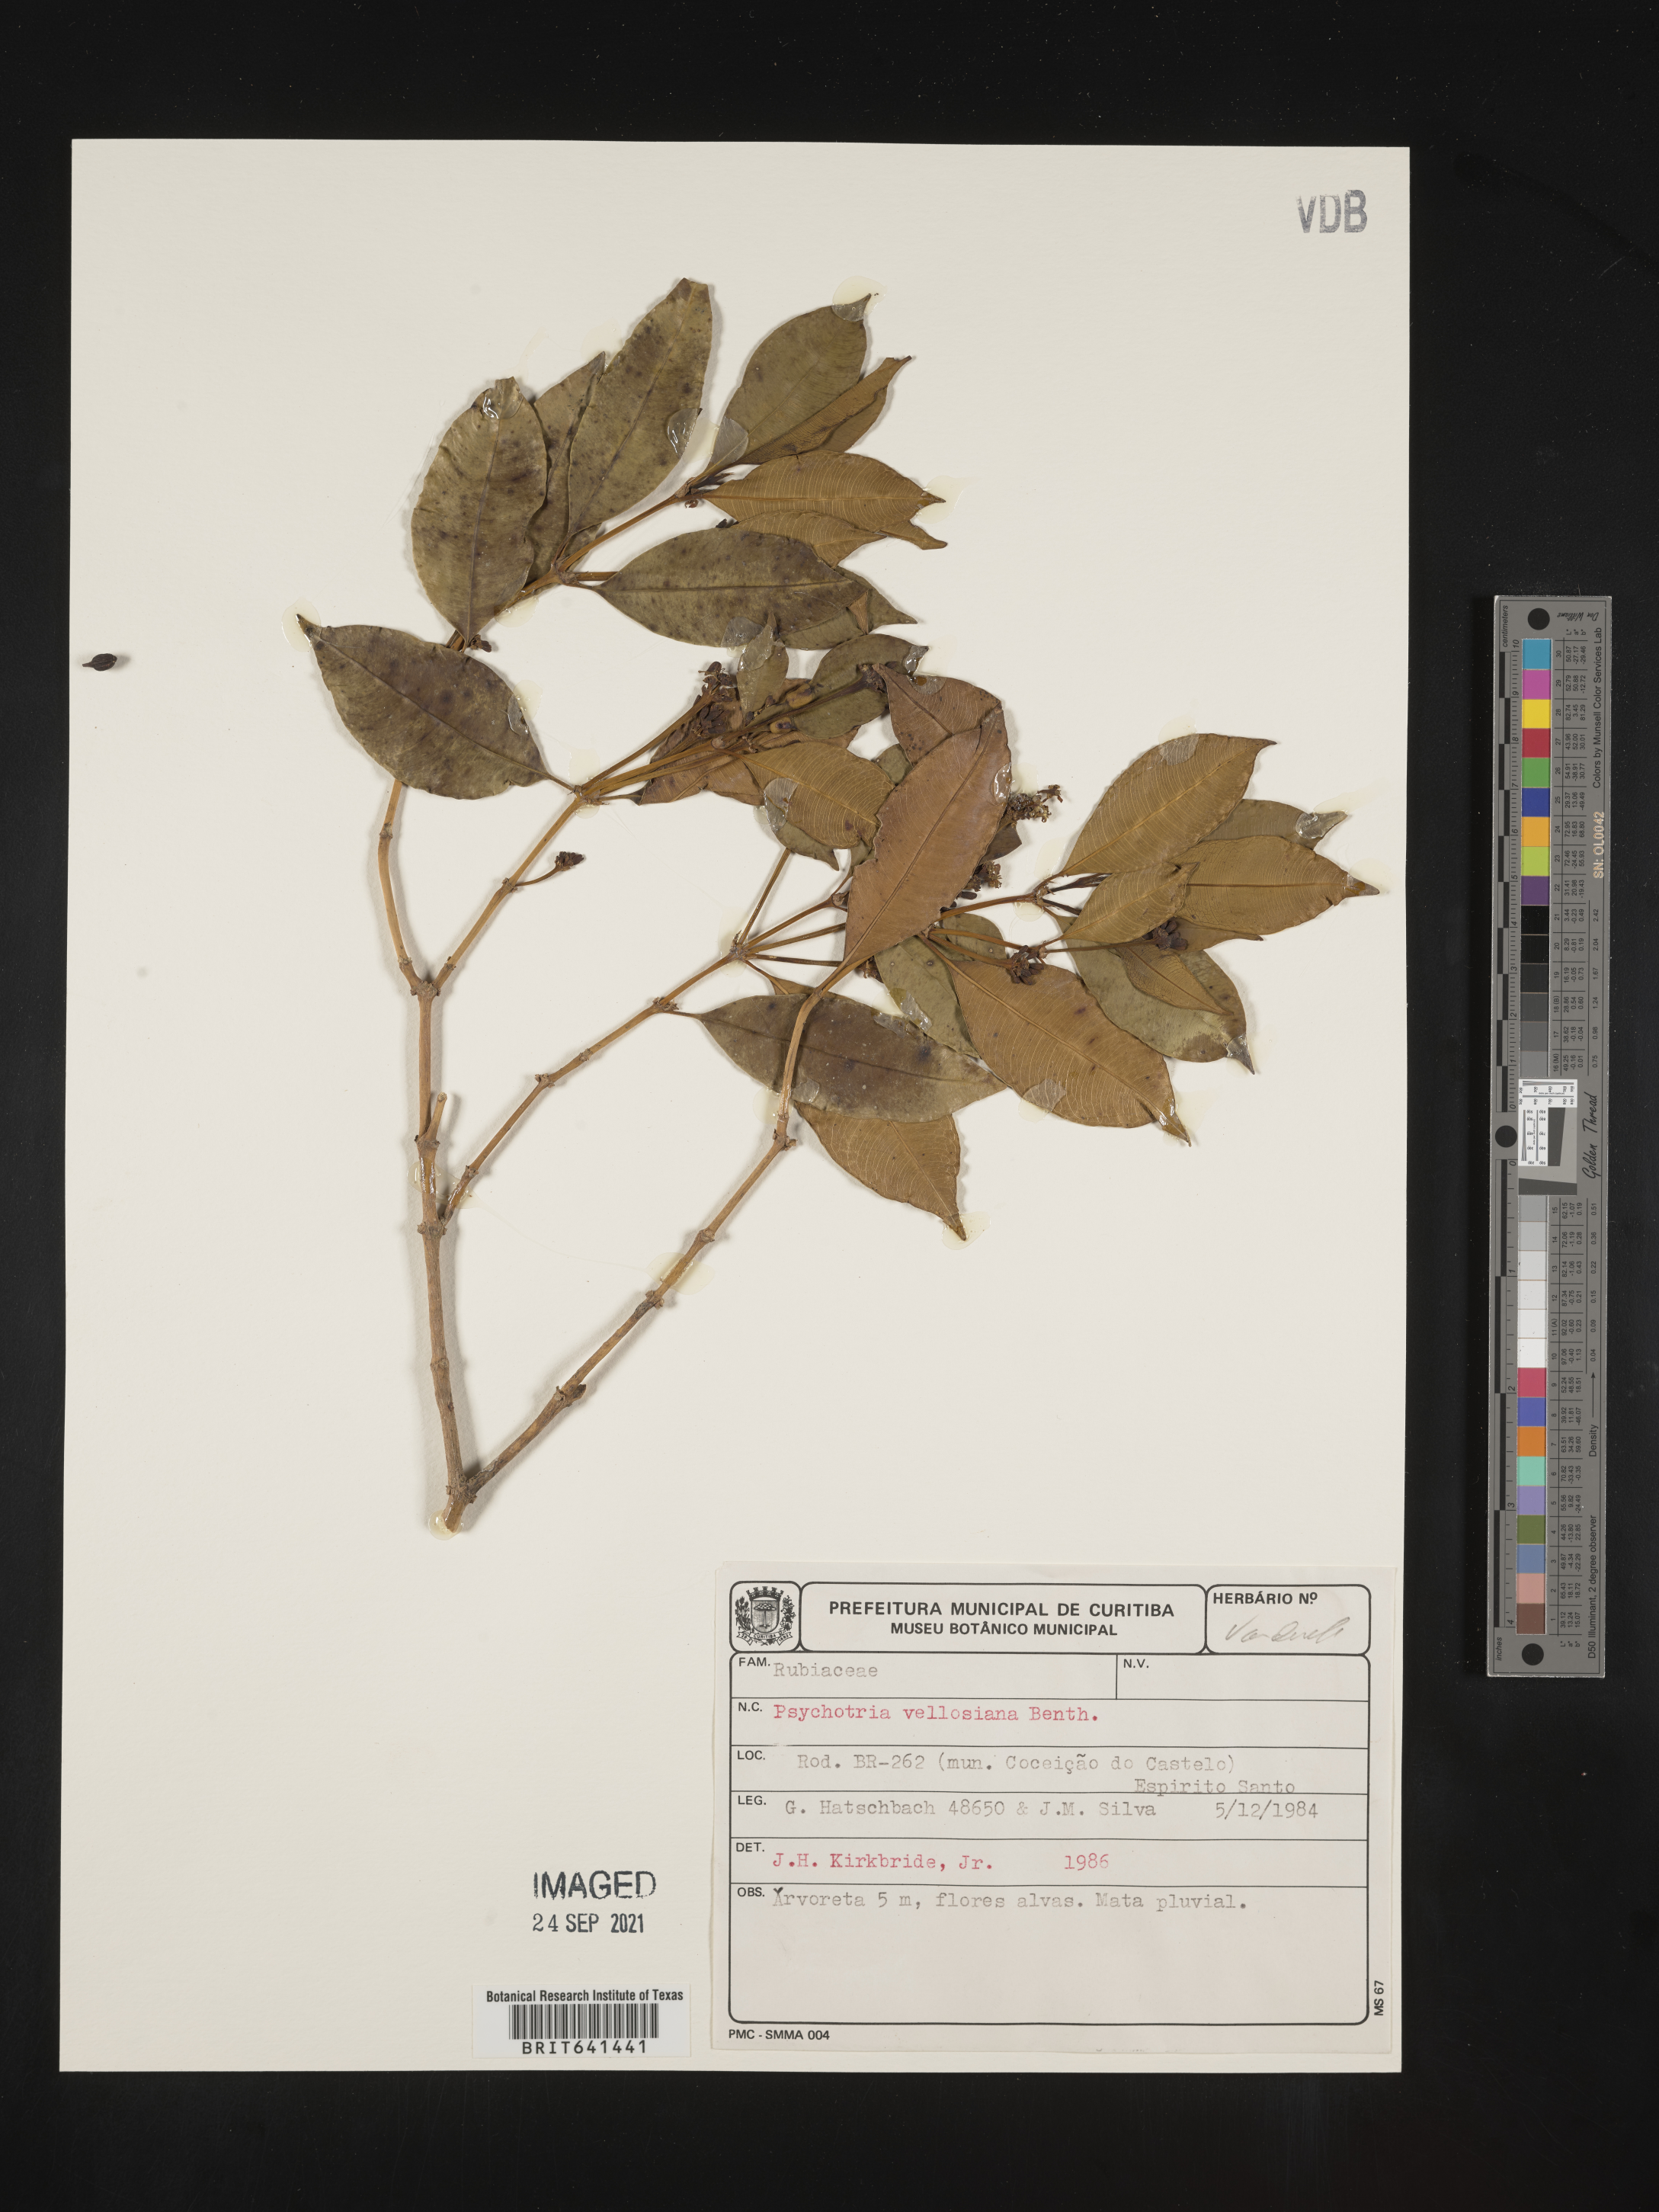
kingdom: Plantae
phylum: Tracheophyta
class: Magnoliopsida
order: Gentianales
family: Rubiaceae
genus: Psychotria
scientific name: Psychotria
